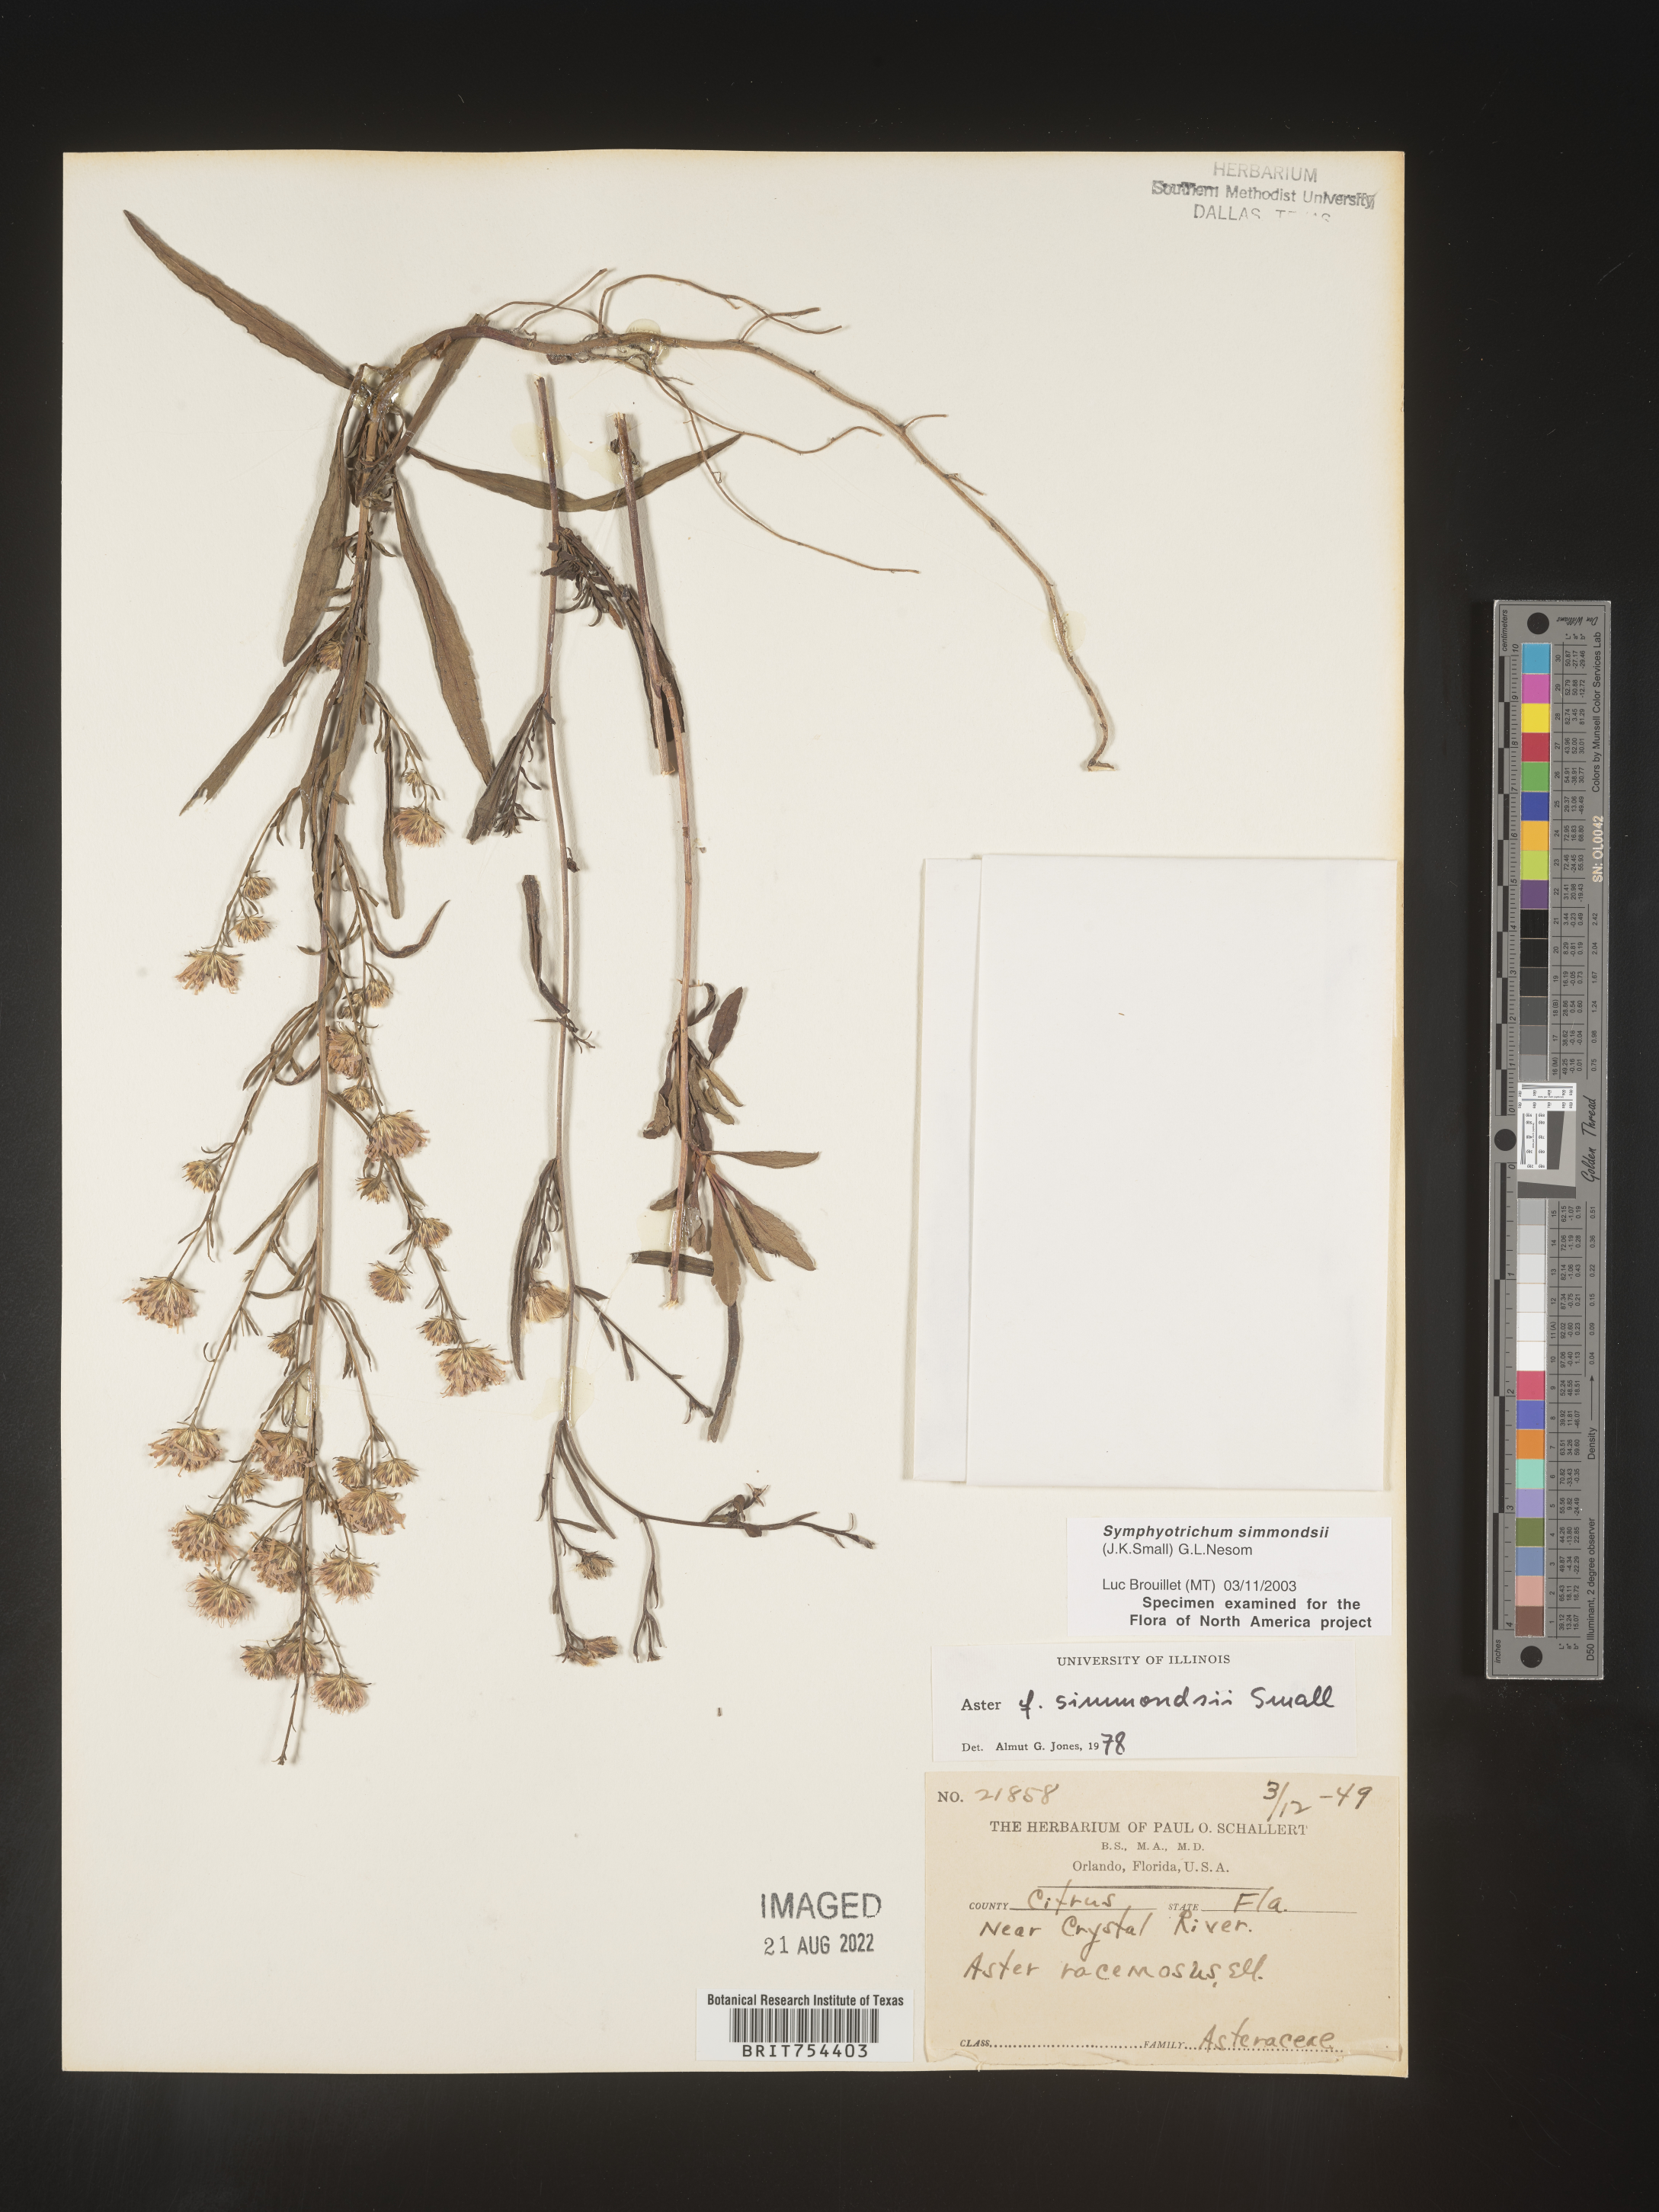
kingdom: Plantae
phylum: Tracheophyta
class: Magnoliopsida
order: Asterales
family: Asteraceae
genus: Symphyotrichum
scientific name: Symphyotrichum simmondsii
